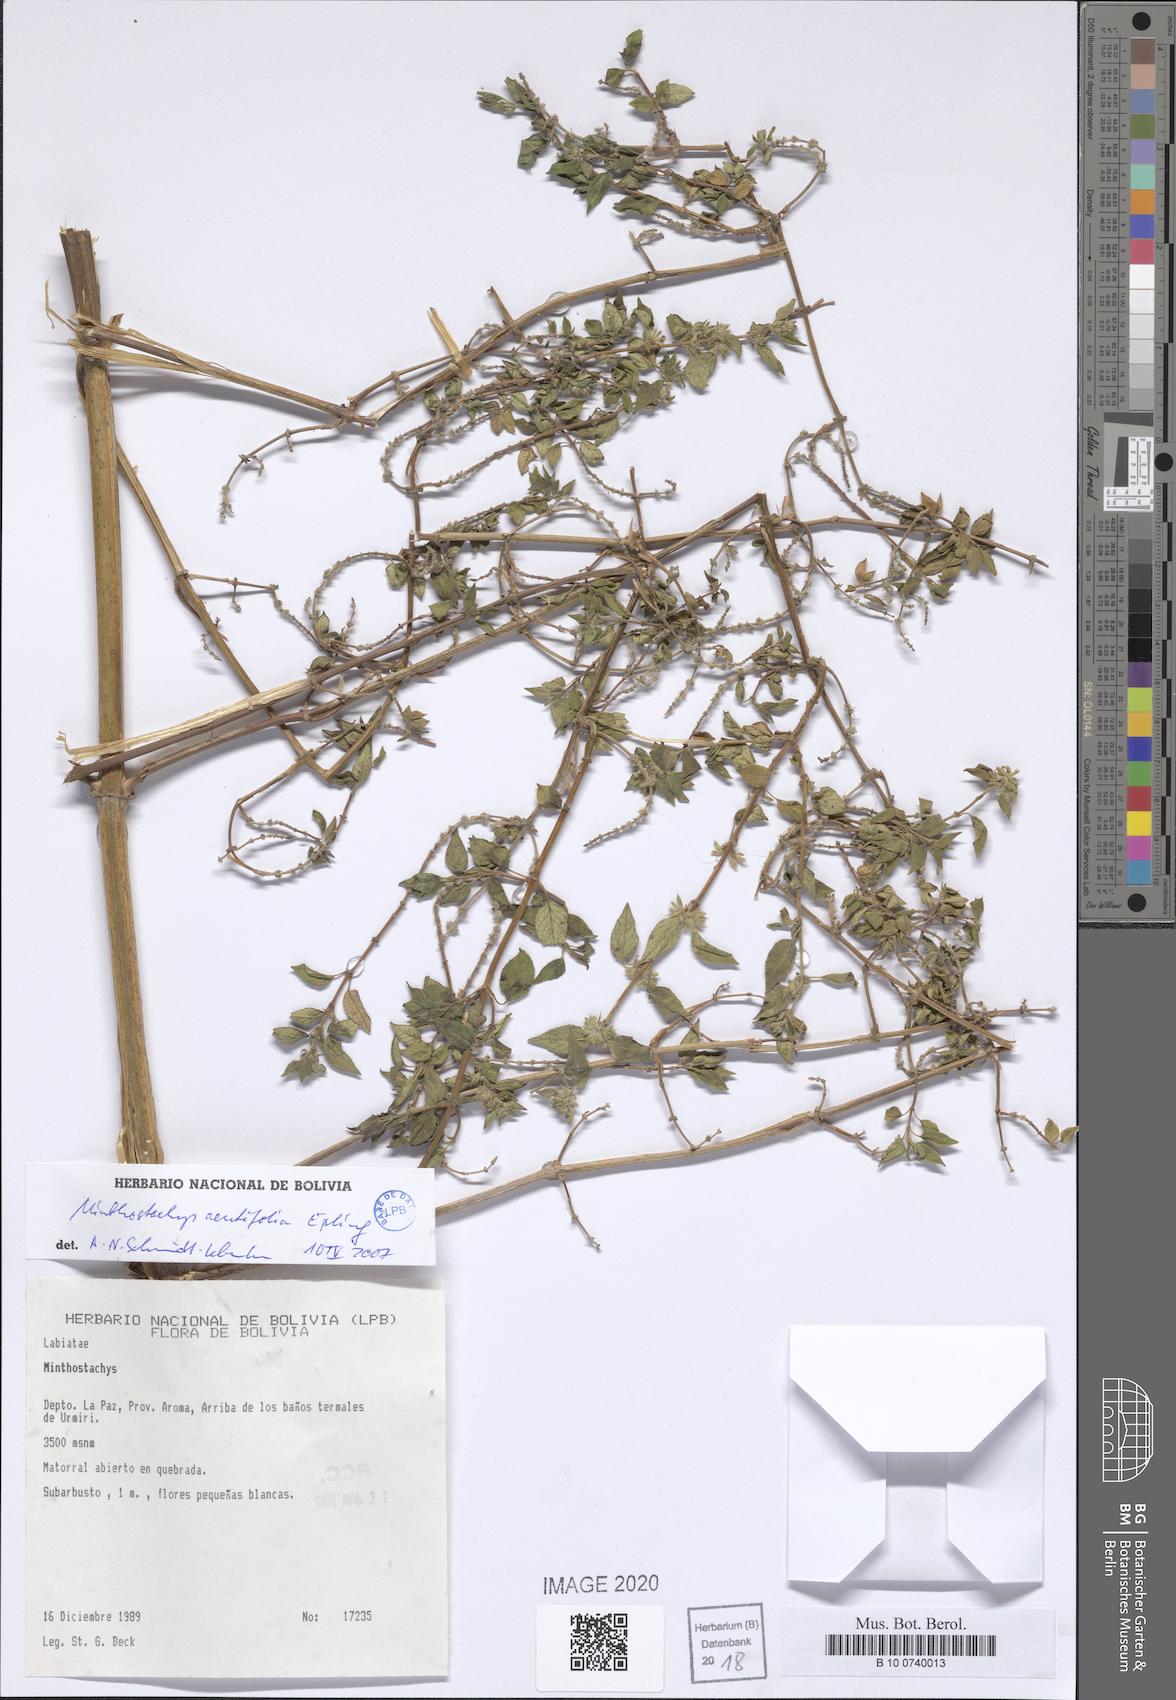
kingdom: Plantae
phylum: Tracheophyta
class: Magnoliopsida
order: Lamiales
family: Lamiaceae
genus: Minthostachys
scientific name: Minthostachys acutifolia
